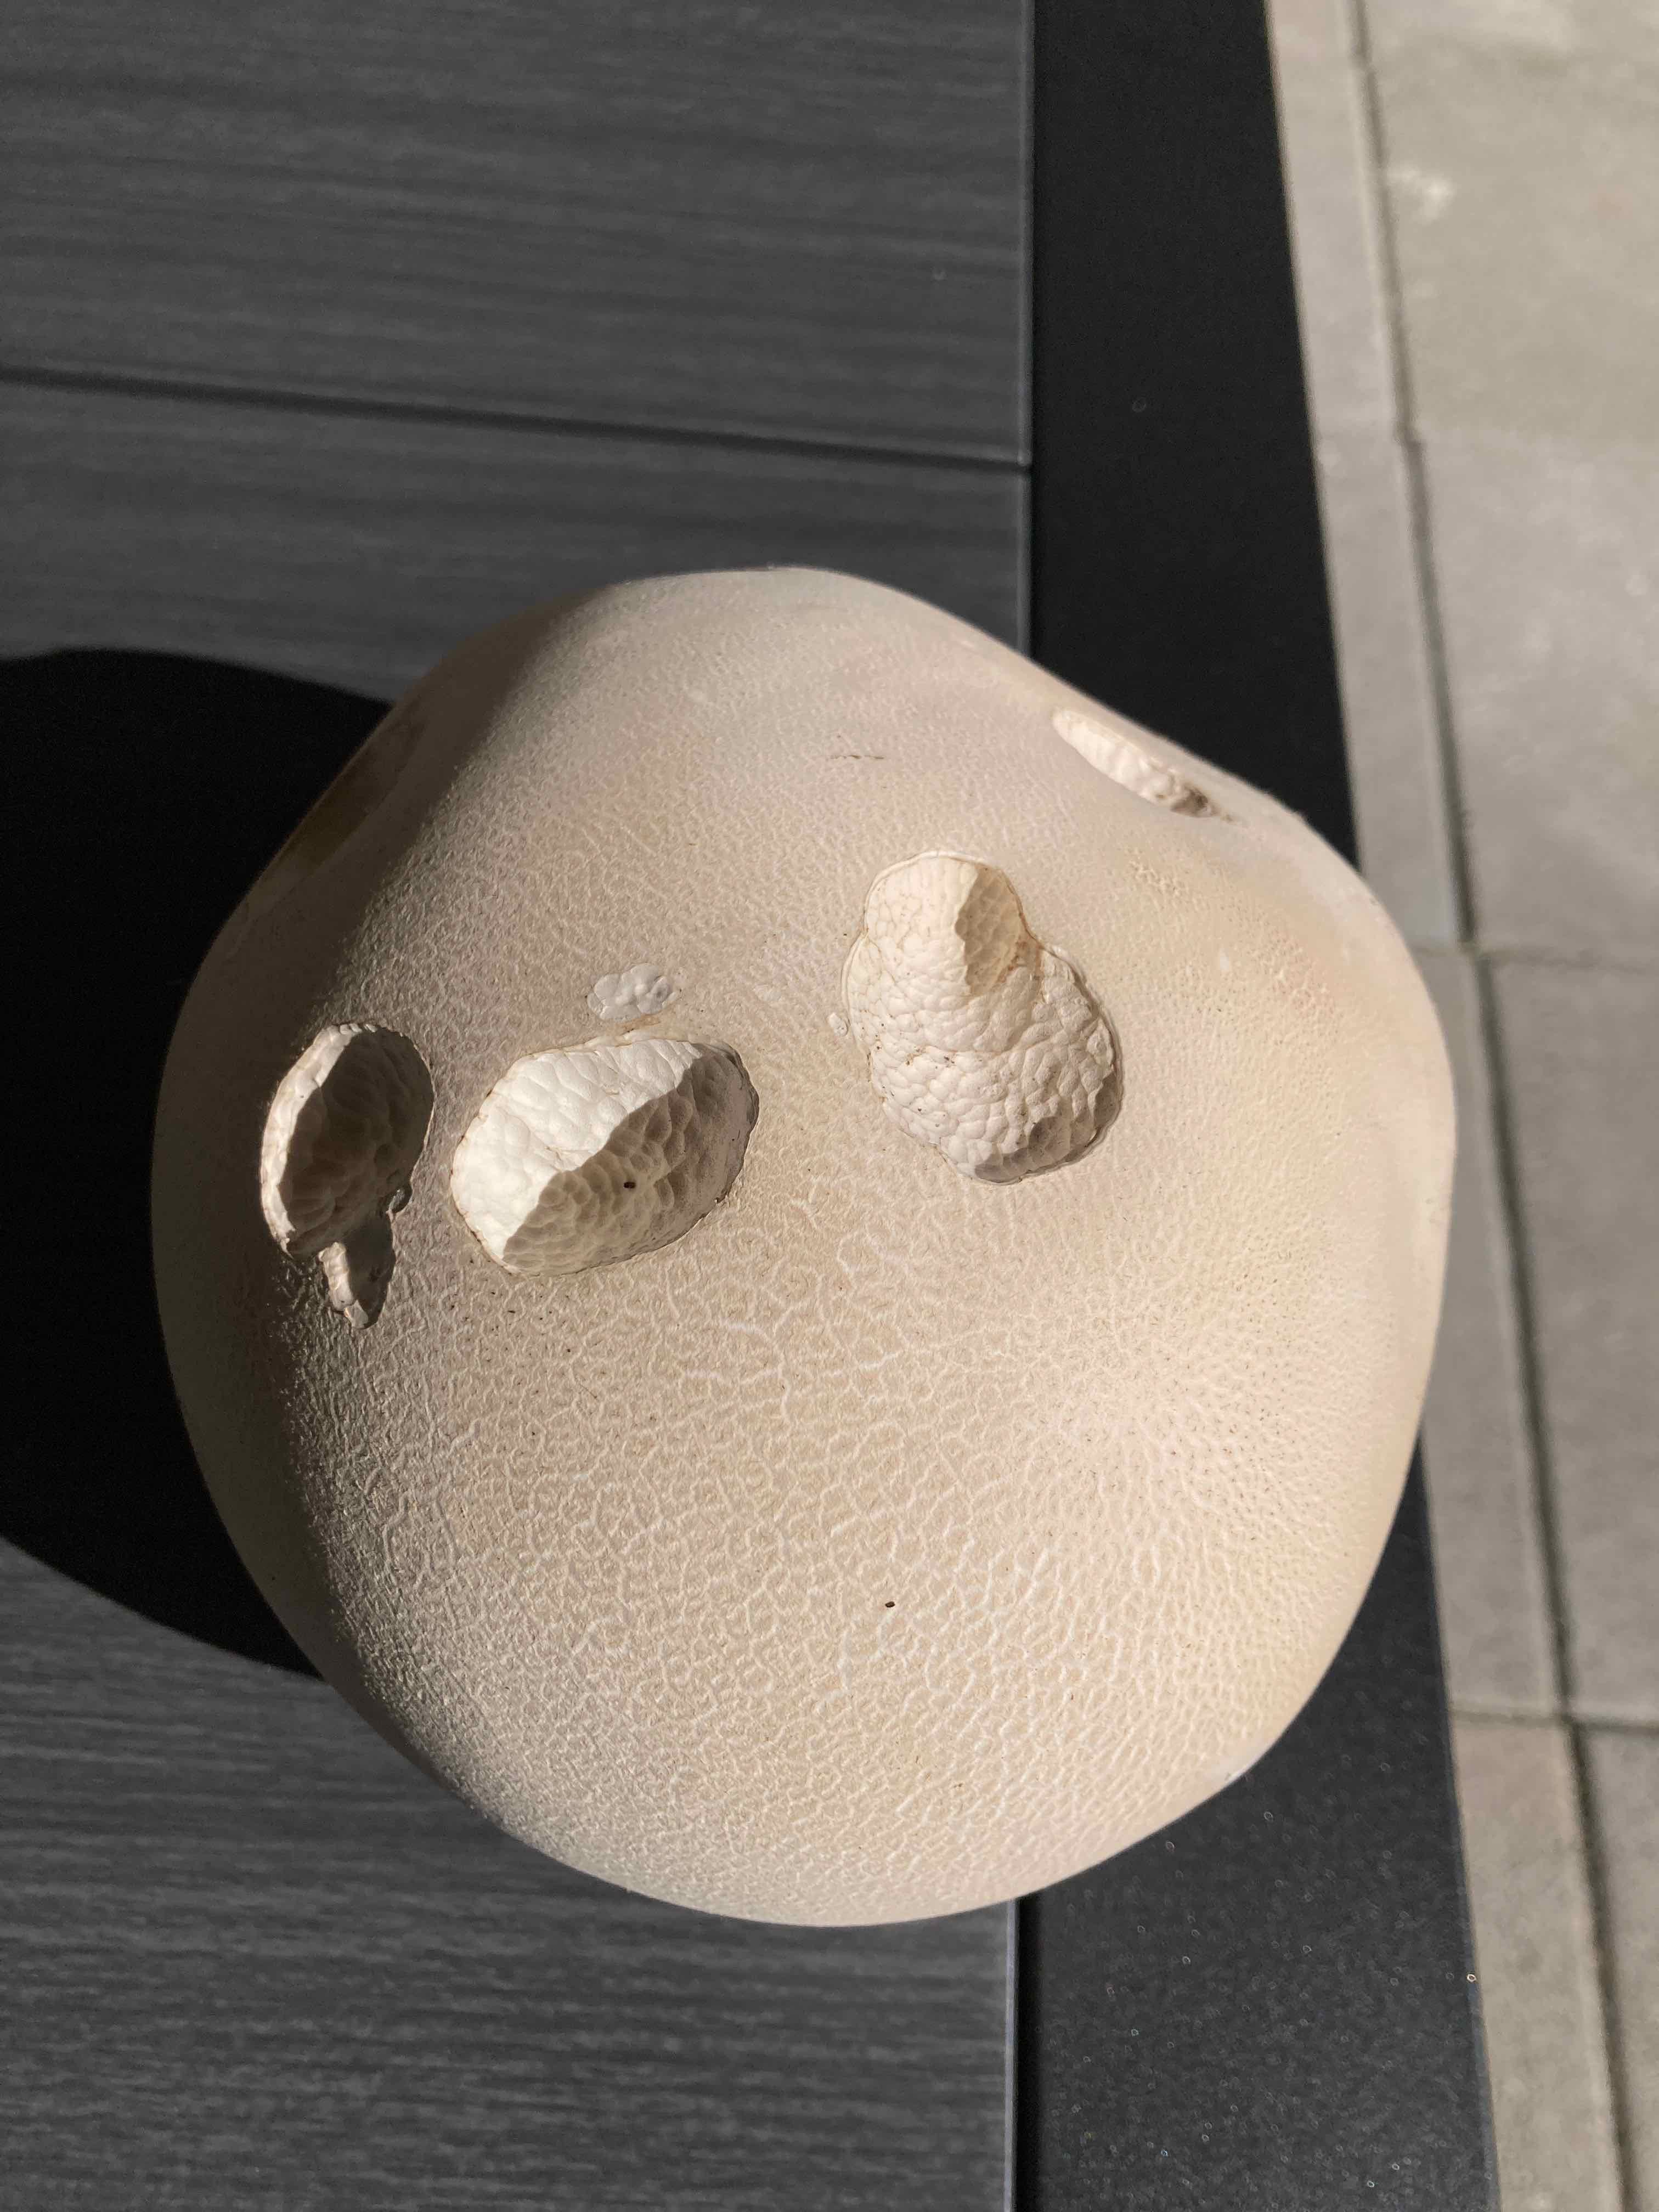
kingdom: Fungi
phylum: Basidiomycota
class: Agaricomycetes
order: Agaricales
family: Lycoperdaceae
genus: Calvatia
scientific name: Calvatia gigantea
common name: kæmpestøvbold
